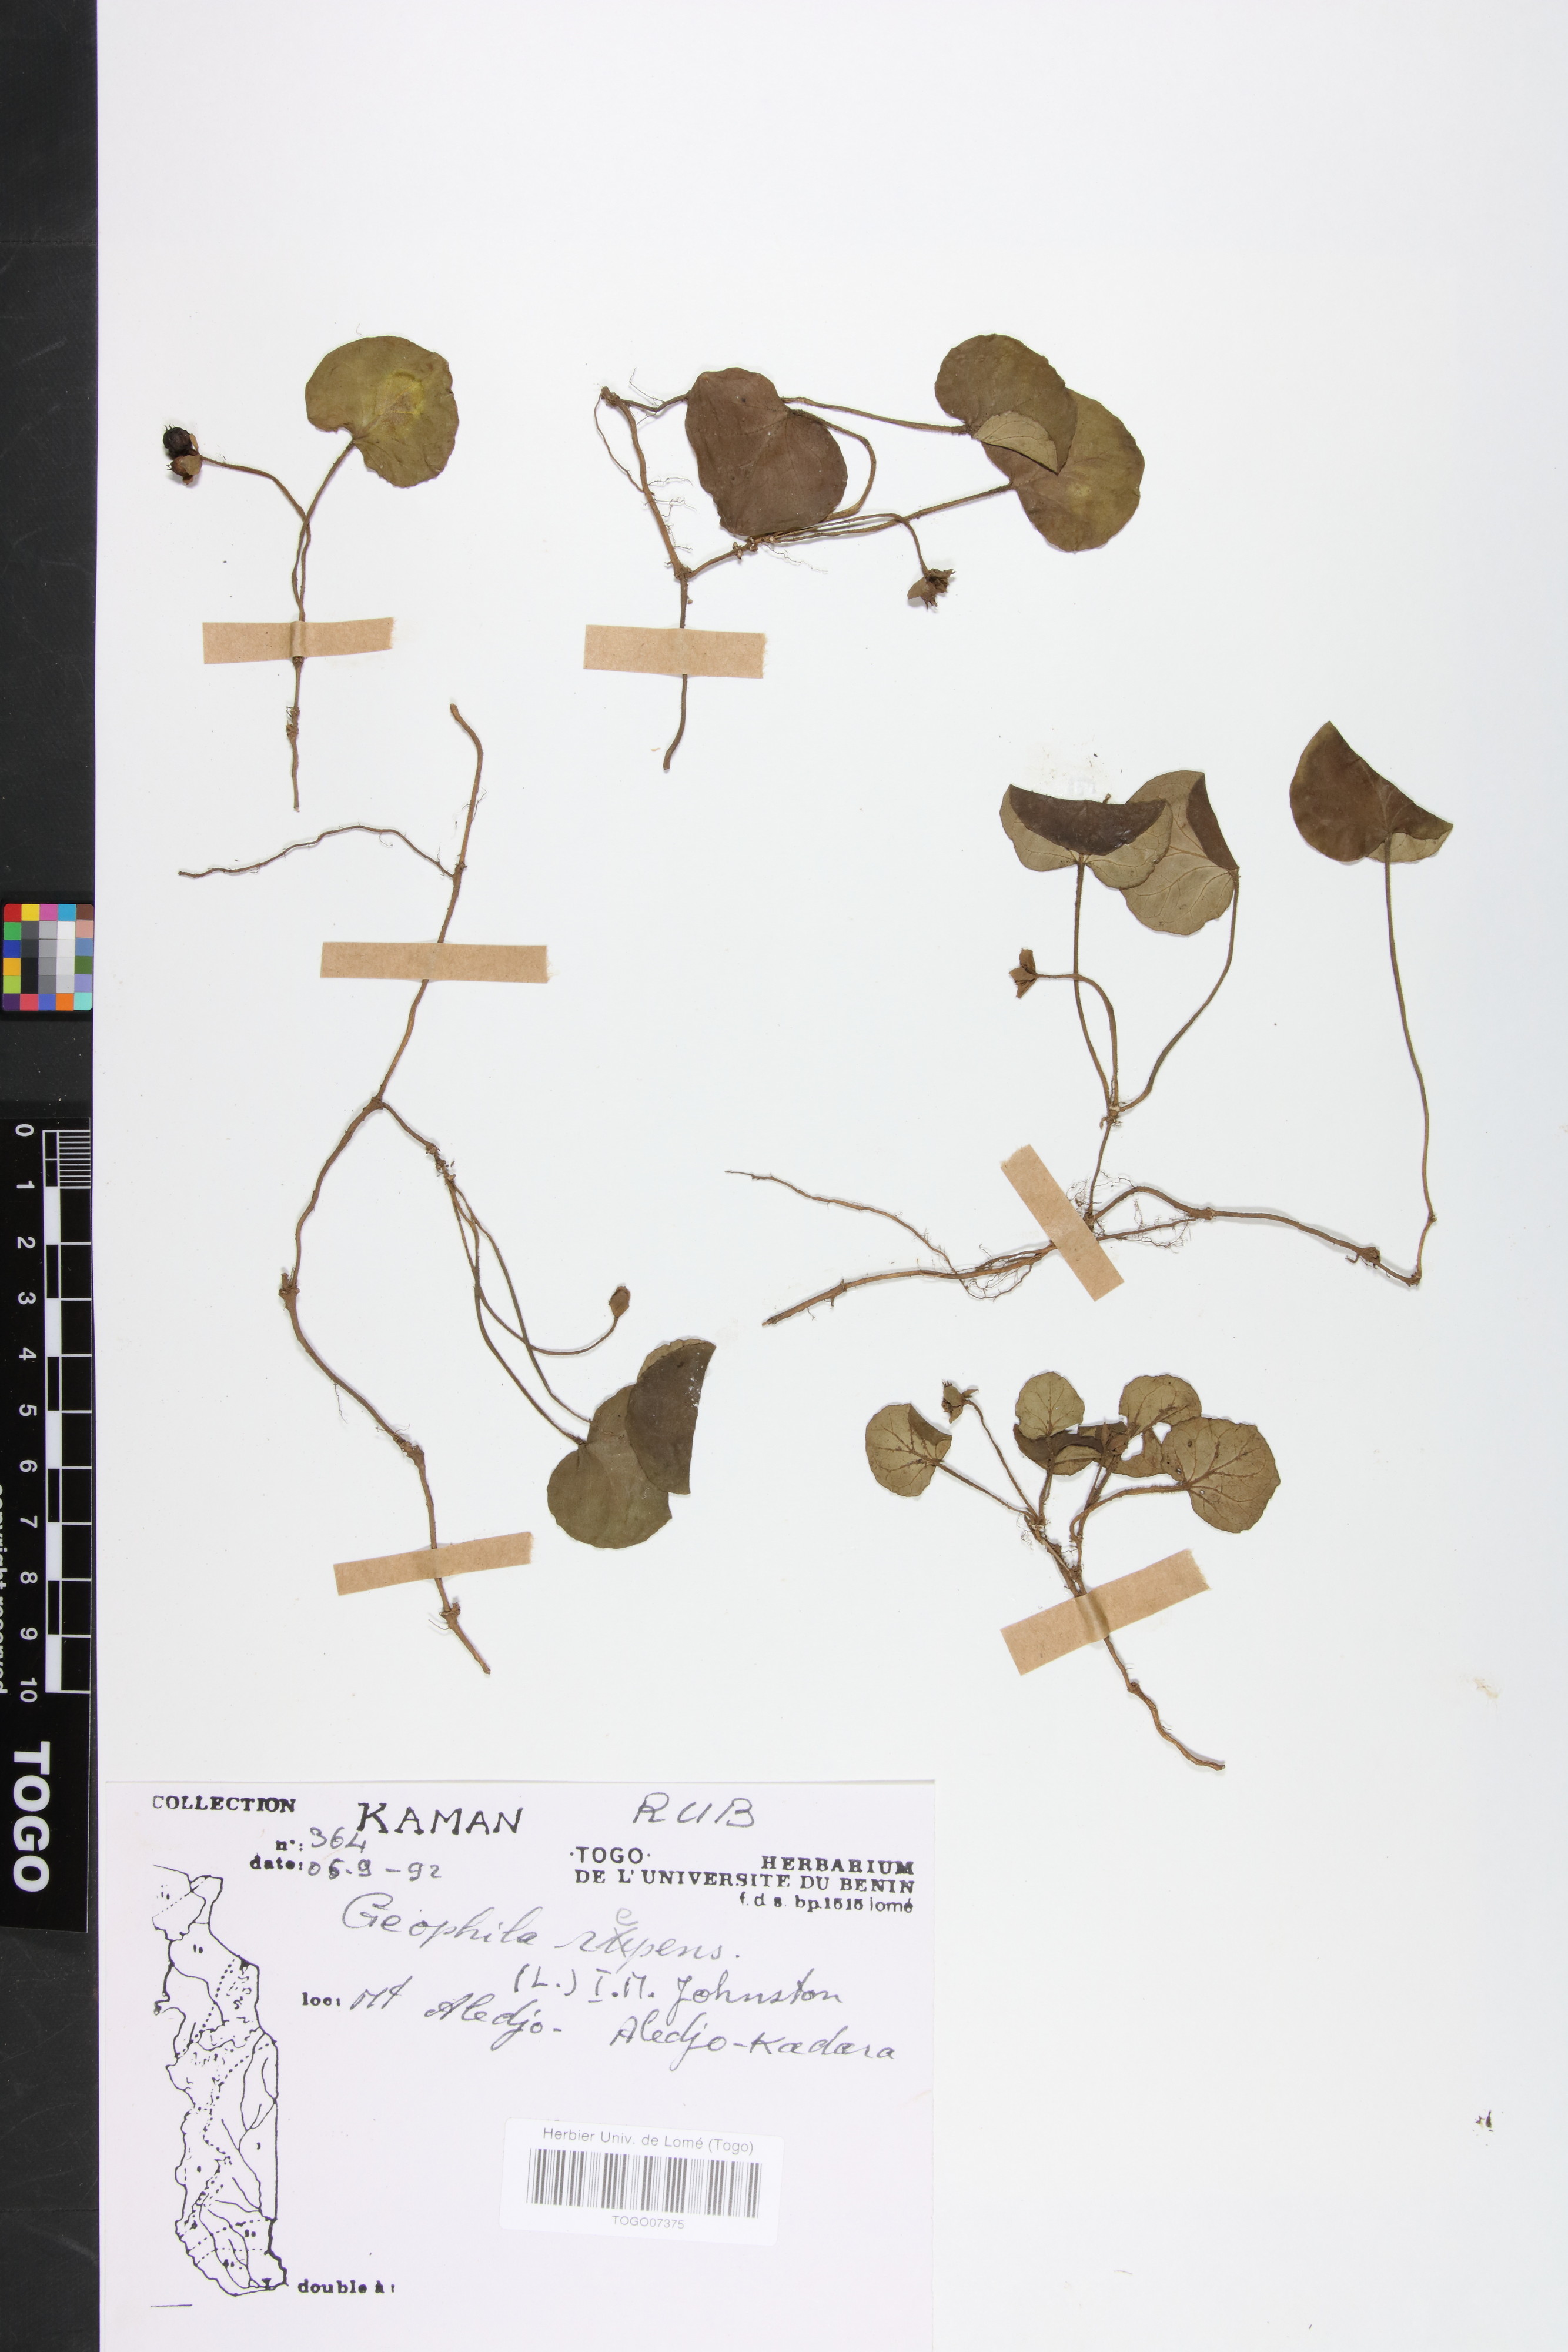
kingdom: Plantae
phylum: Tracheophyta
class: Magnoliopsida
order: Gentianales
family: Rubiaceae
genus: Geophila
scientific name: Geophila repens
